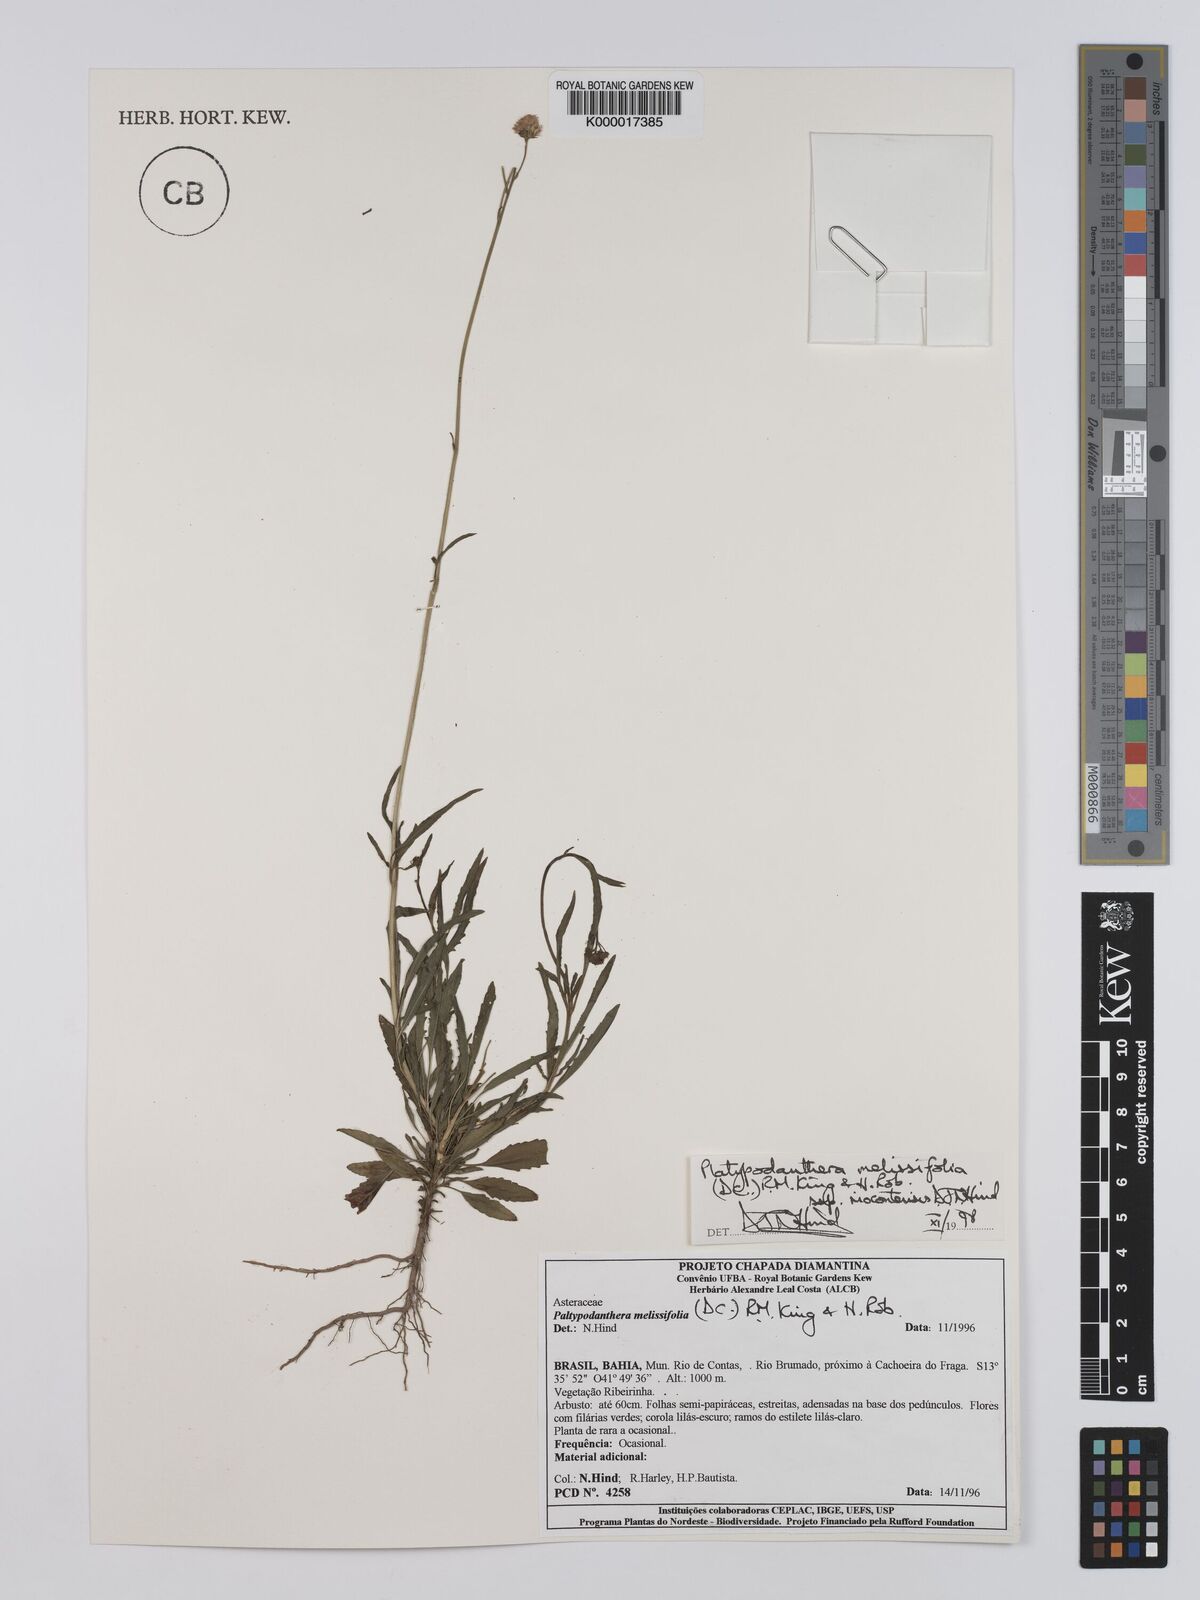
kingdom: Plantae
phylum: Tracheophyta
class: Magnoliopsida
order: Asterales
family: Asteraceae
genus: Platypodanthera
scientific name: Platypodanthera melissifolia
